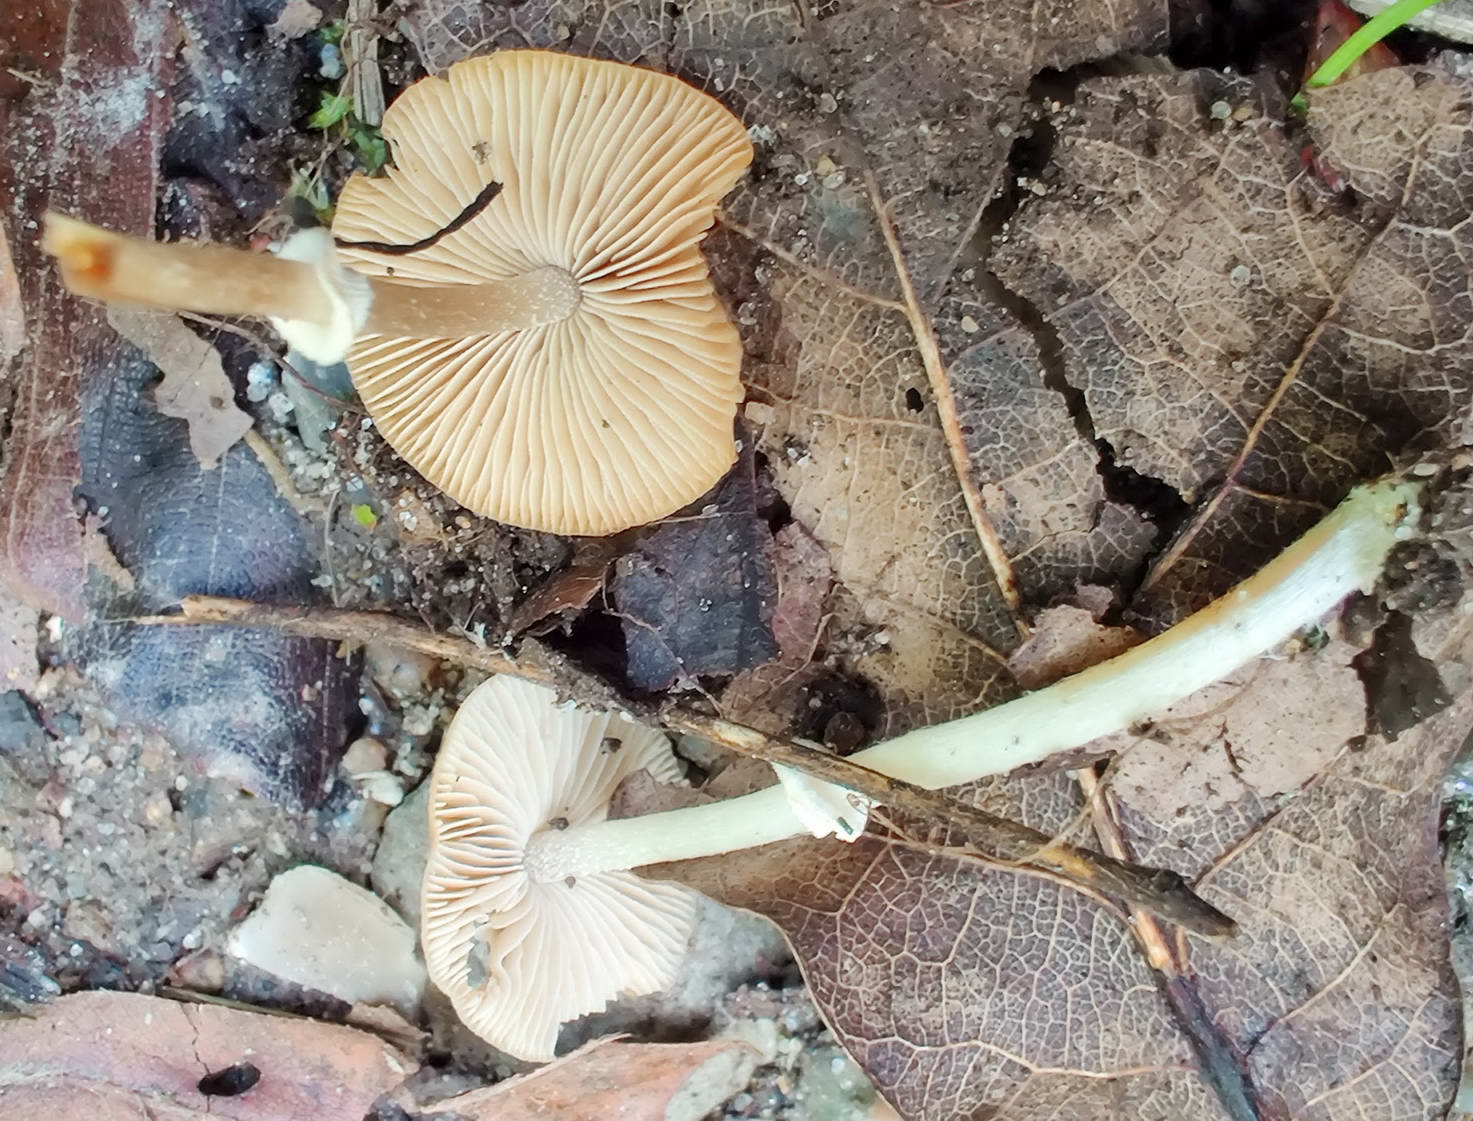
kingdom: Fungi
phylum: Basidiomycota
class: Agaricomycetes
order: Agaricales
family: Bolbitiaceae
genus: Conocybe
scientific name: Conocybe arrhenii
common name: ring-dansehat
